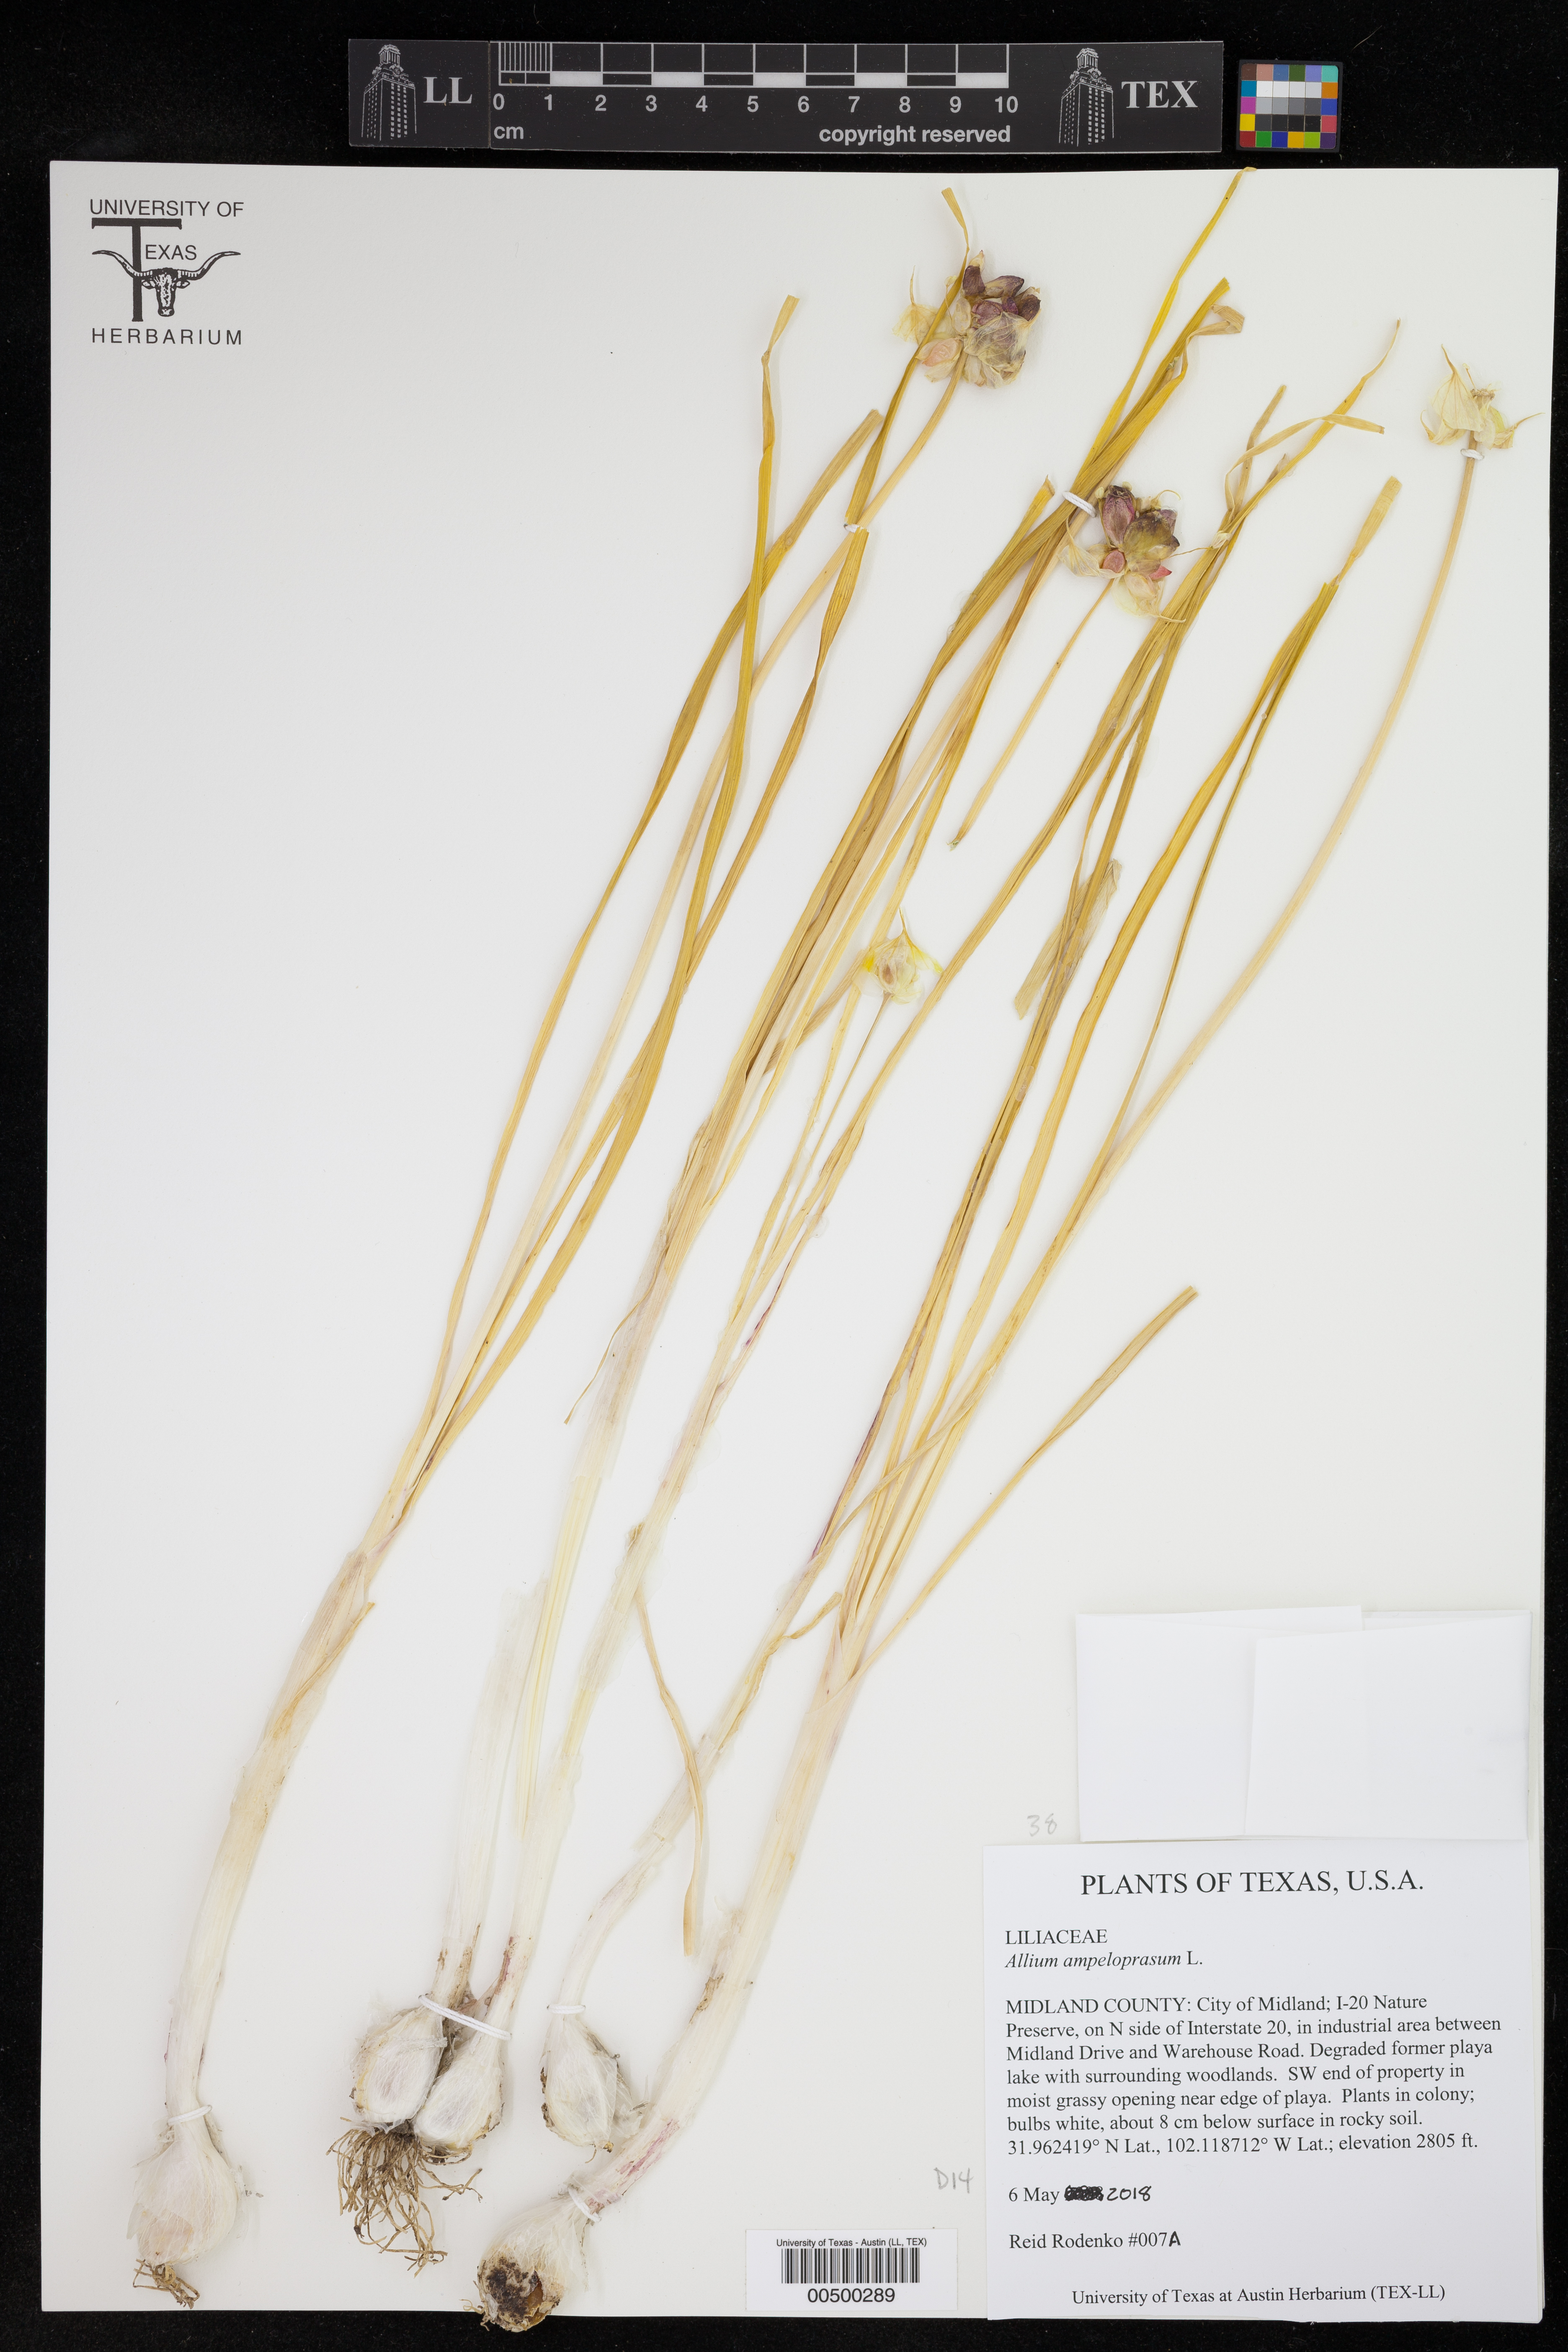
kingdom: Plantae
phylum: Tracheophyta
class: Liliopsida
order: Asparagales
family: Amaryllidaceae
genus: Allium
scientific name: Allium ampeloprasum
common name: Wild leek
